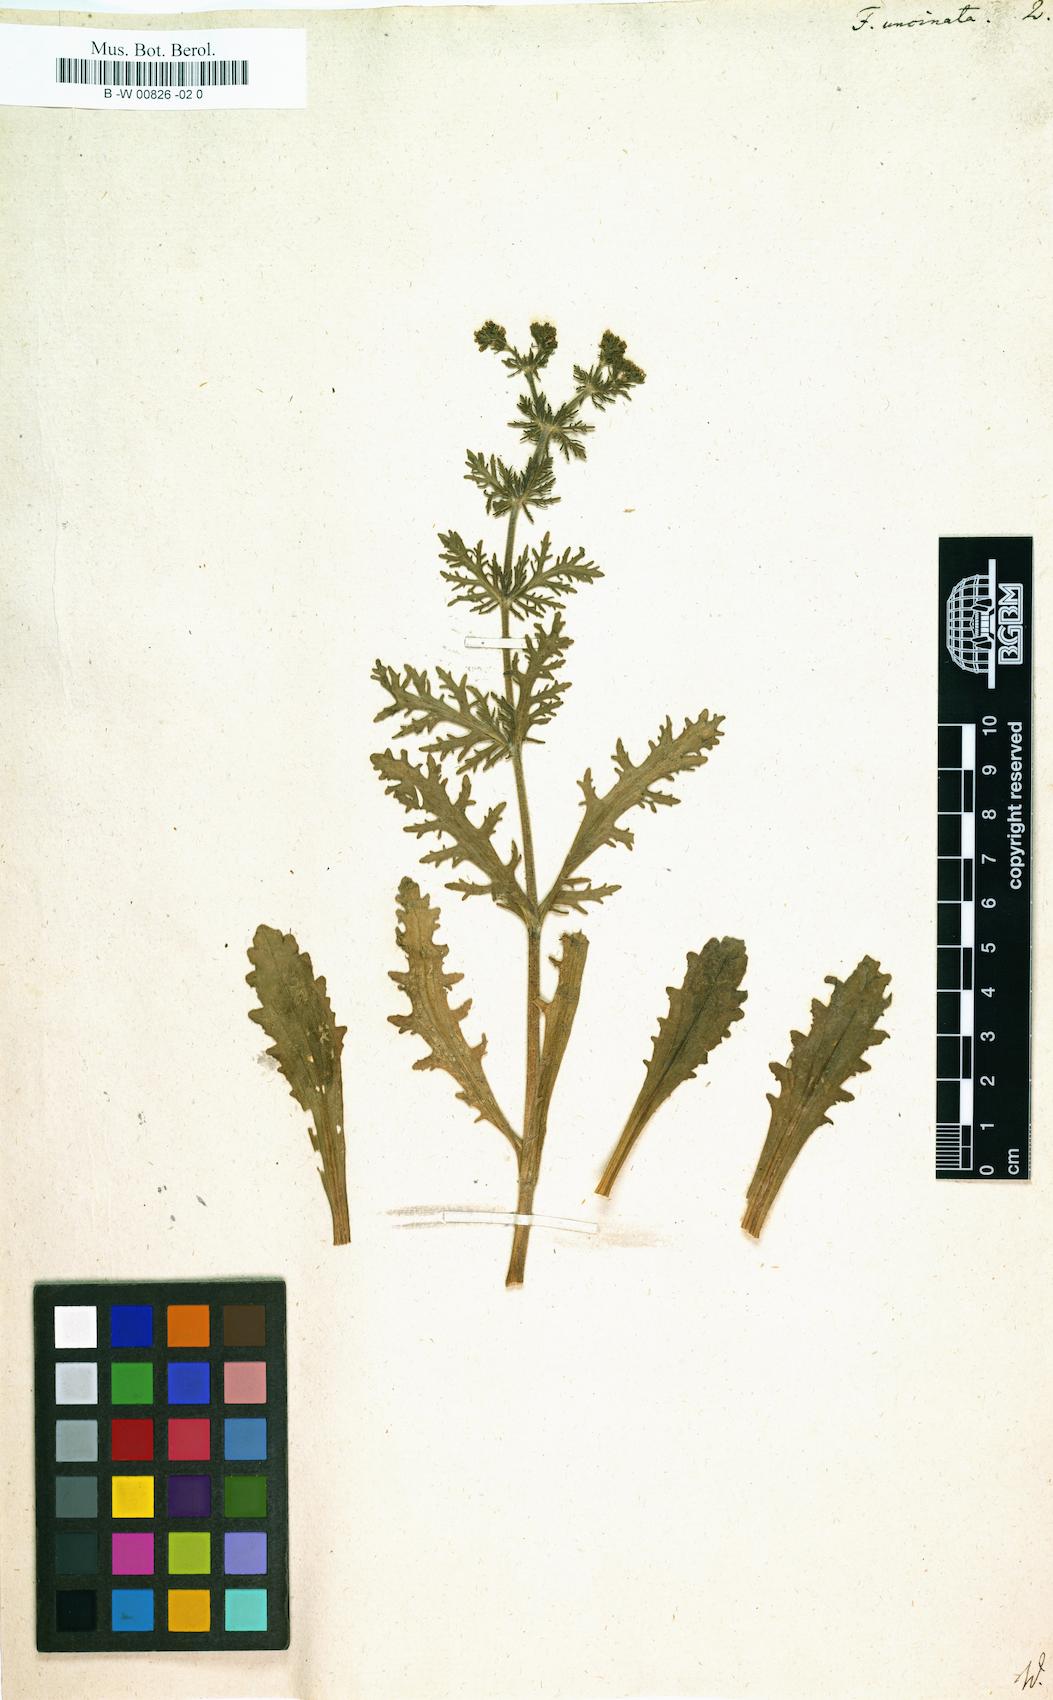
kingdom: Plantae
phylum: Tracheophyta
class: Magnoliopsida
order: Dipsacales
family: Caprifoliaceae
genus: Valerianella
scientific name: Valerianella uncinata
